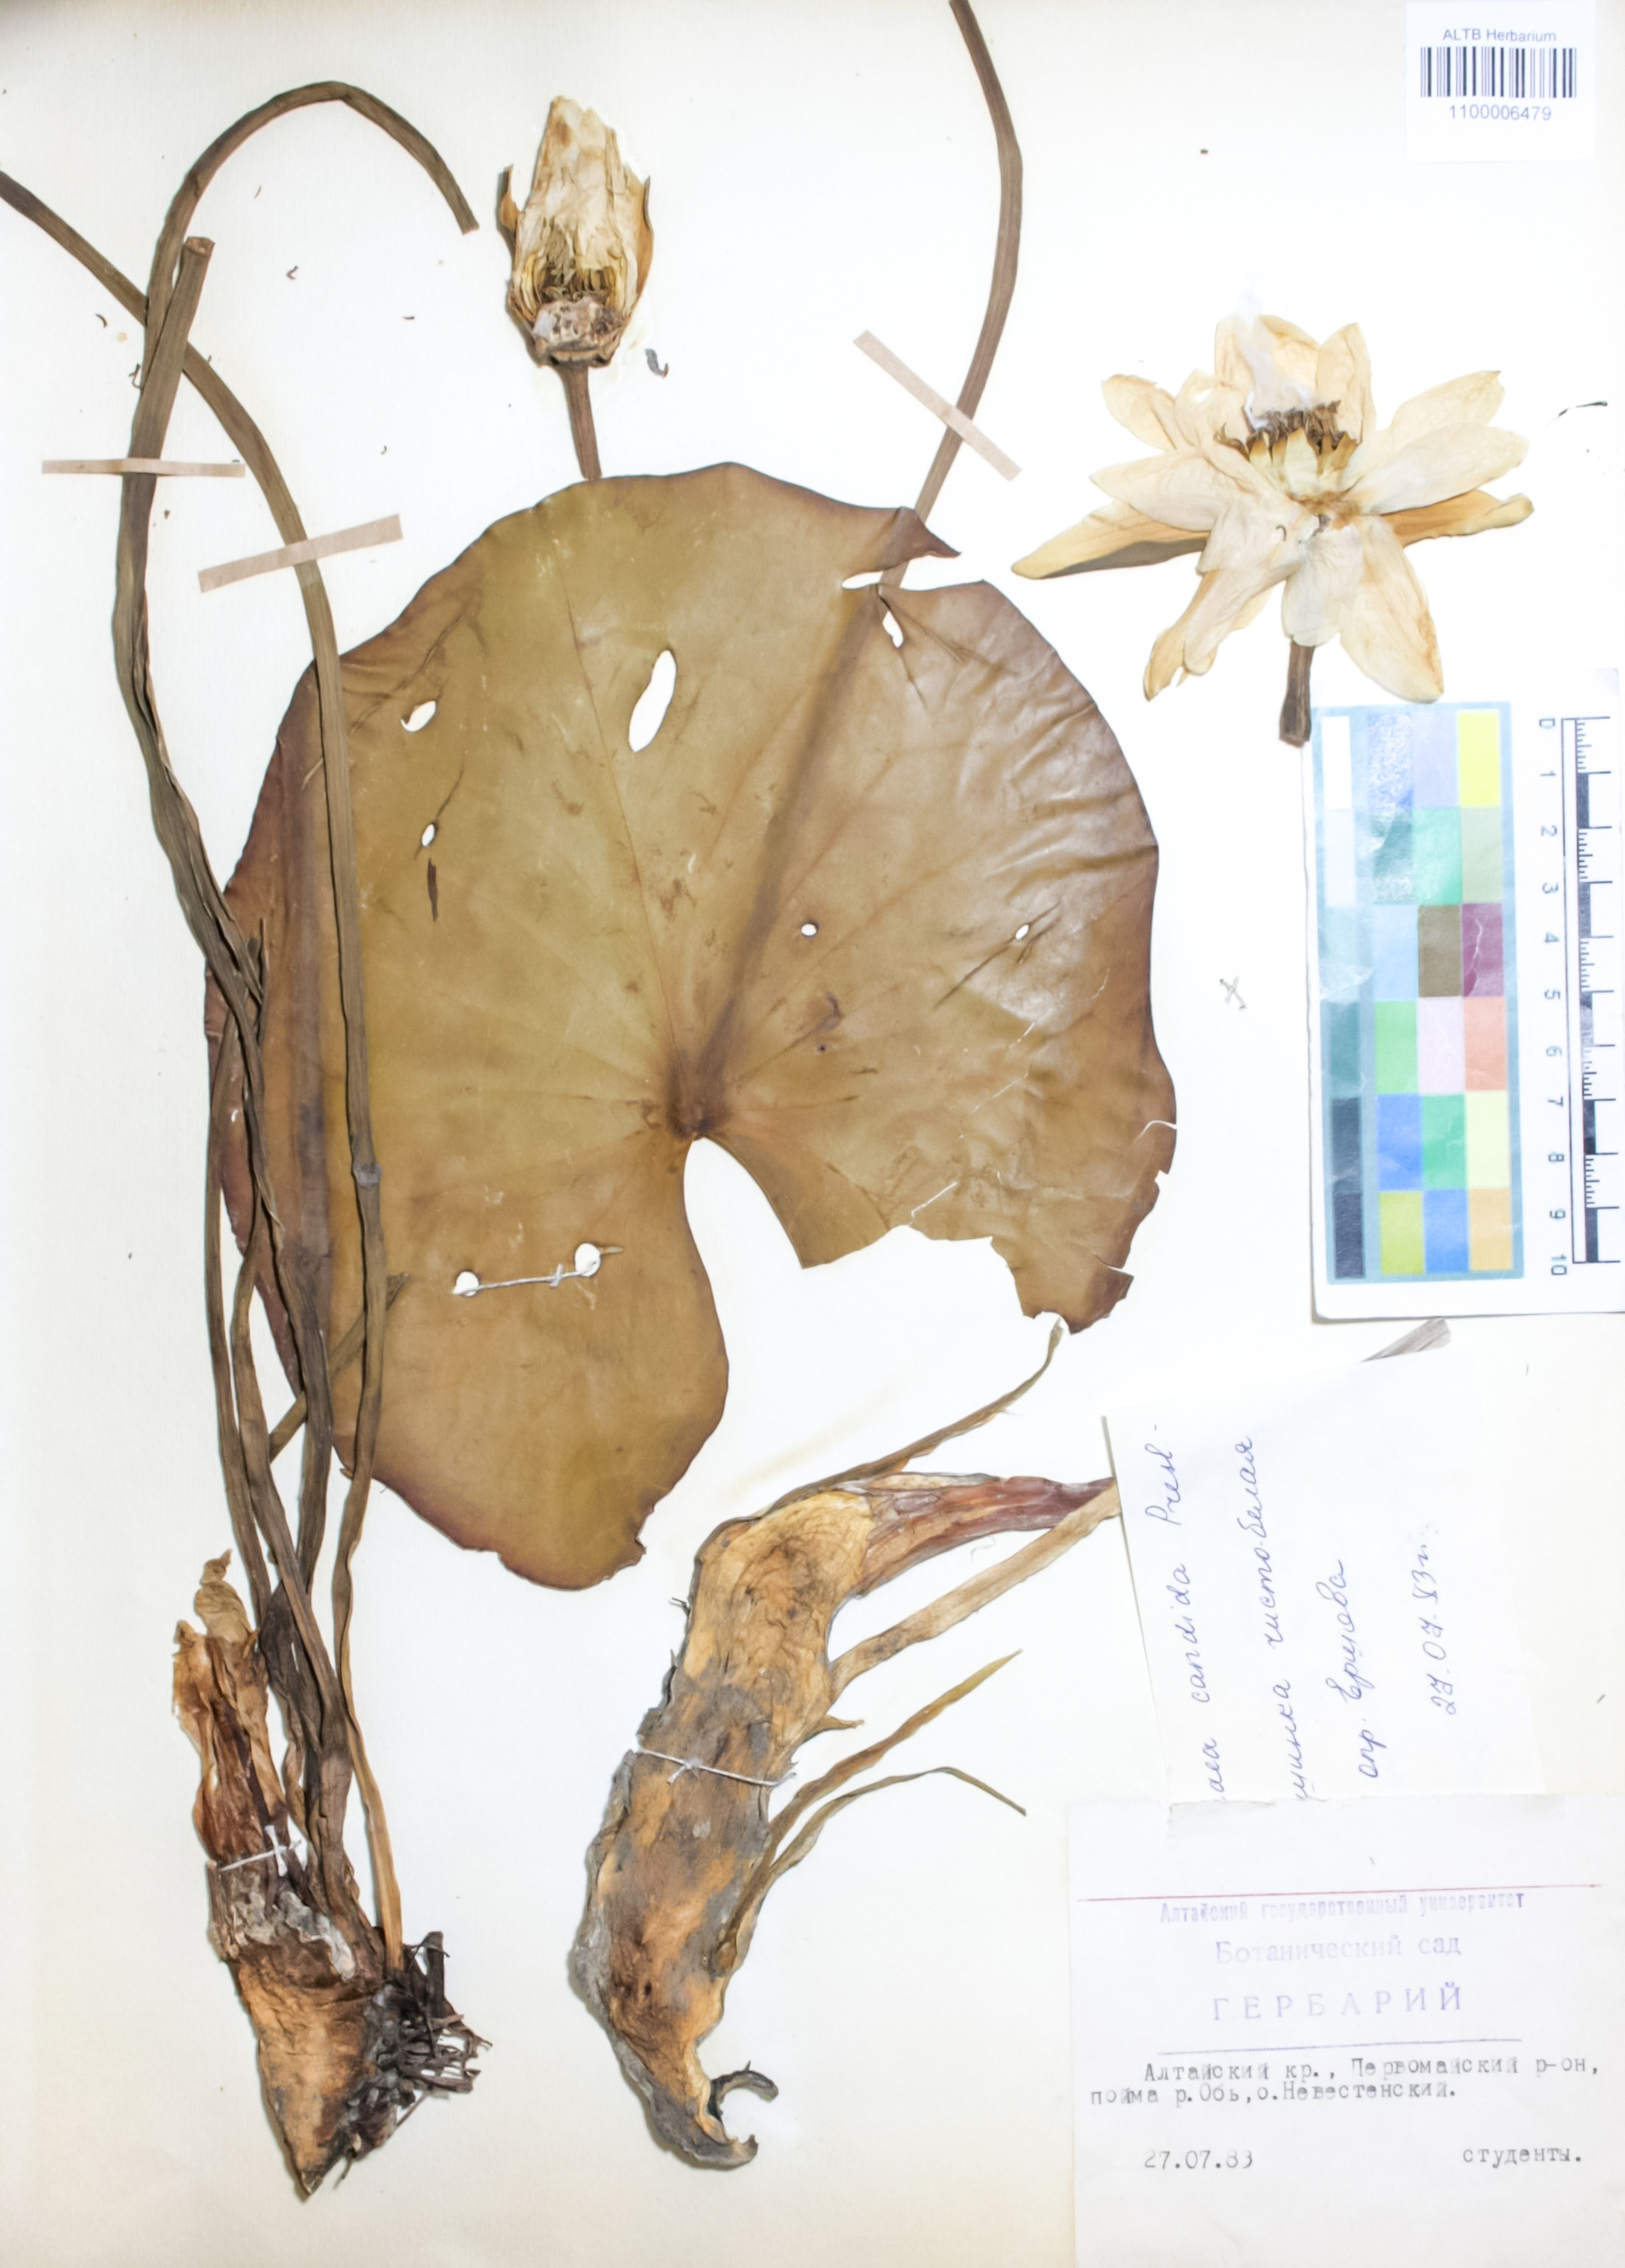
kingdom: Plantae
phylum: Tracheophyta
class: Magnoliopsida
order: Nymphaeales
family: Nymphaeaceae
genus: Nymphaea
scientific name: Nymphaea candida
